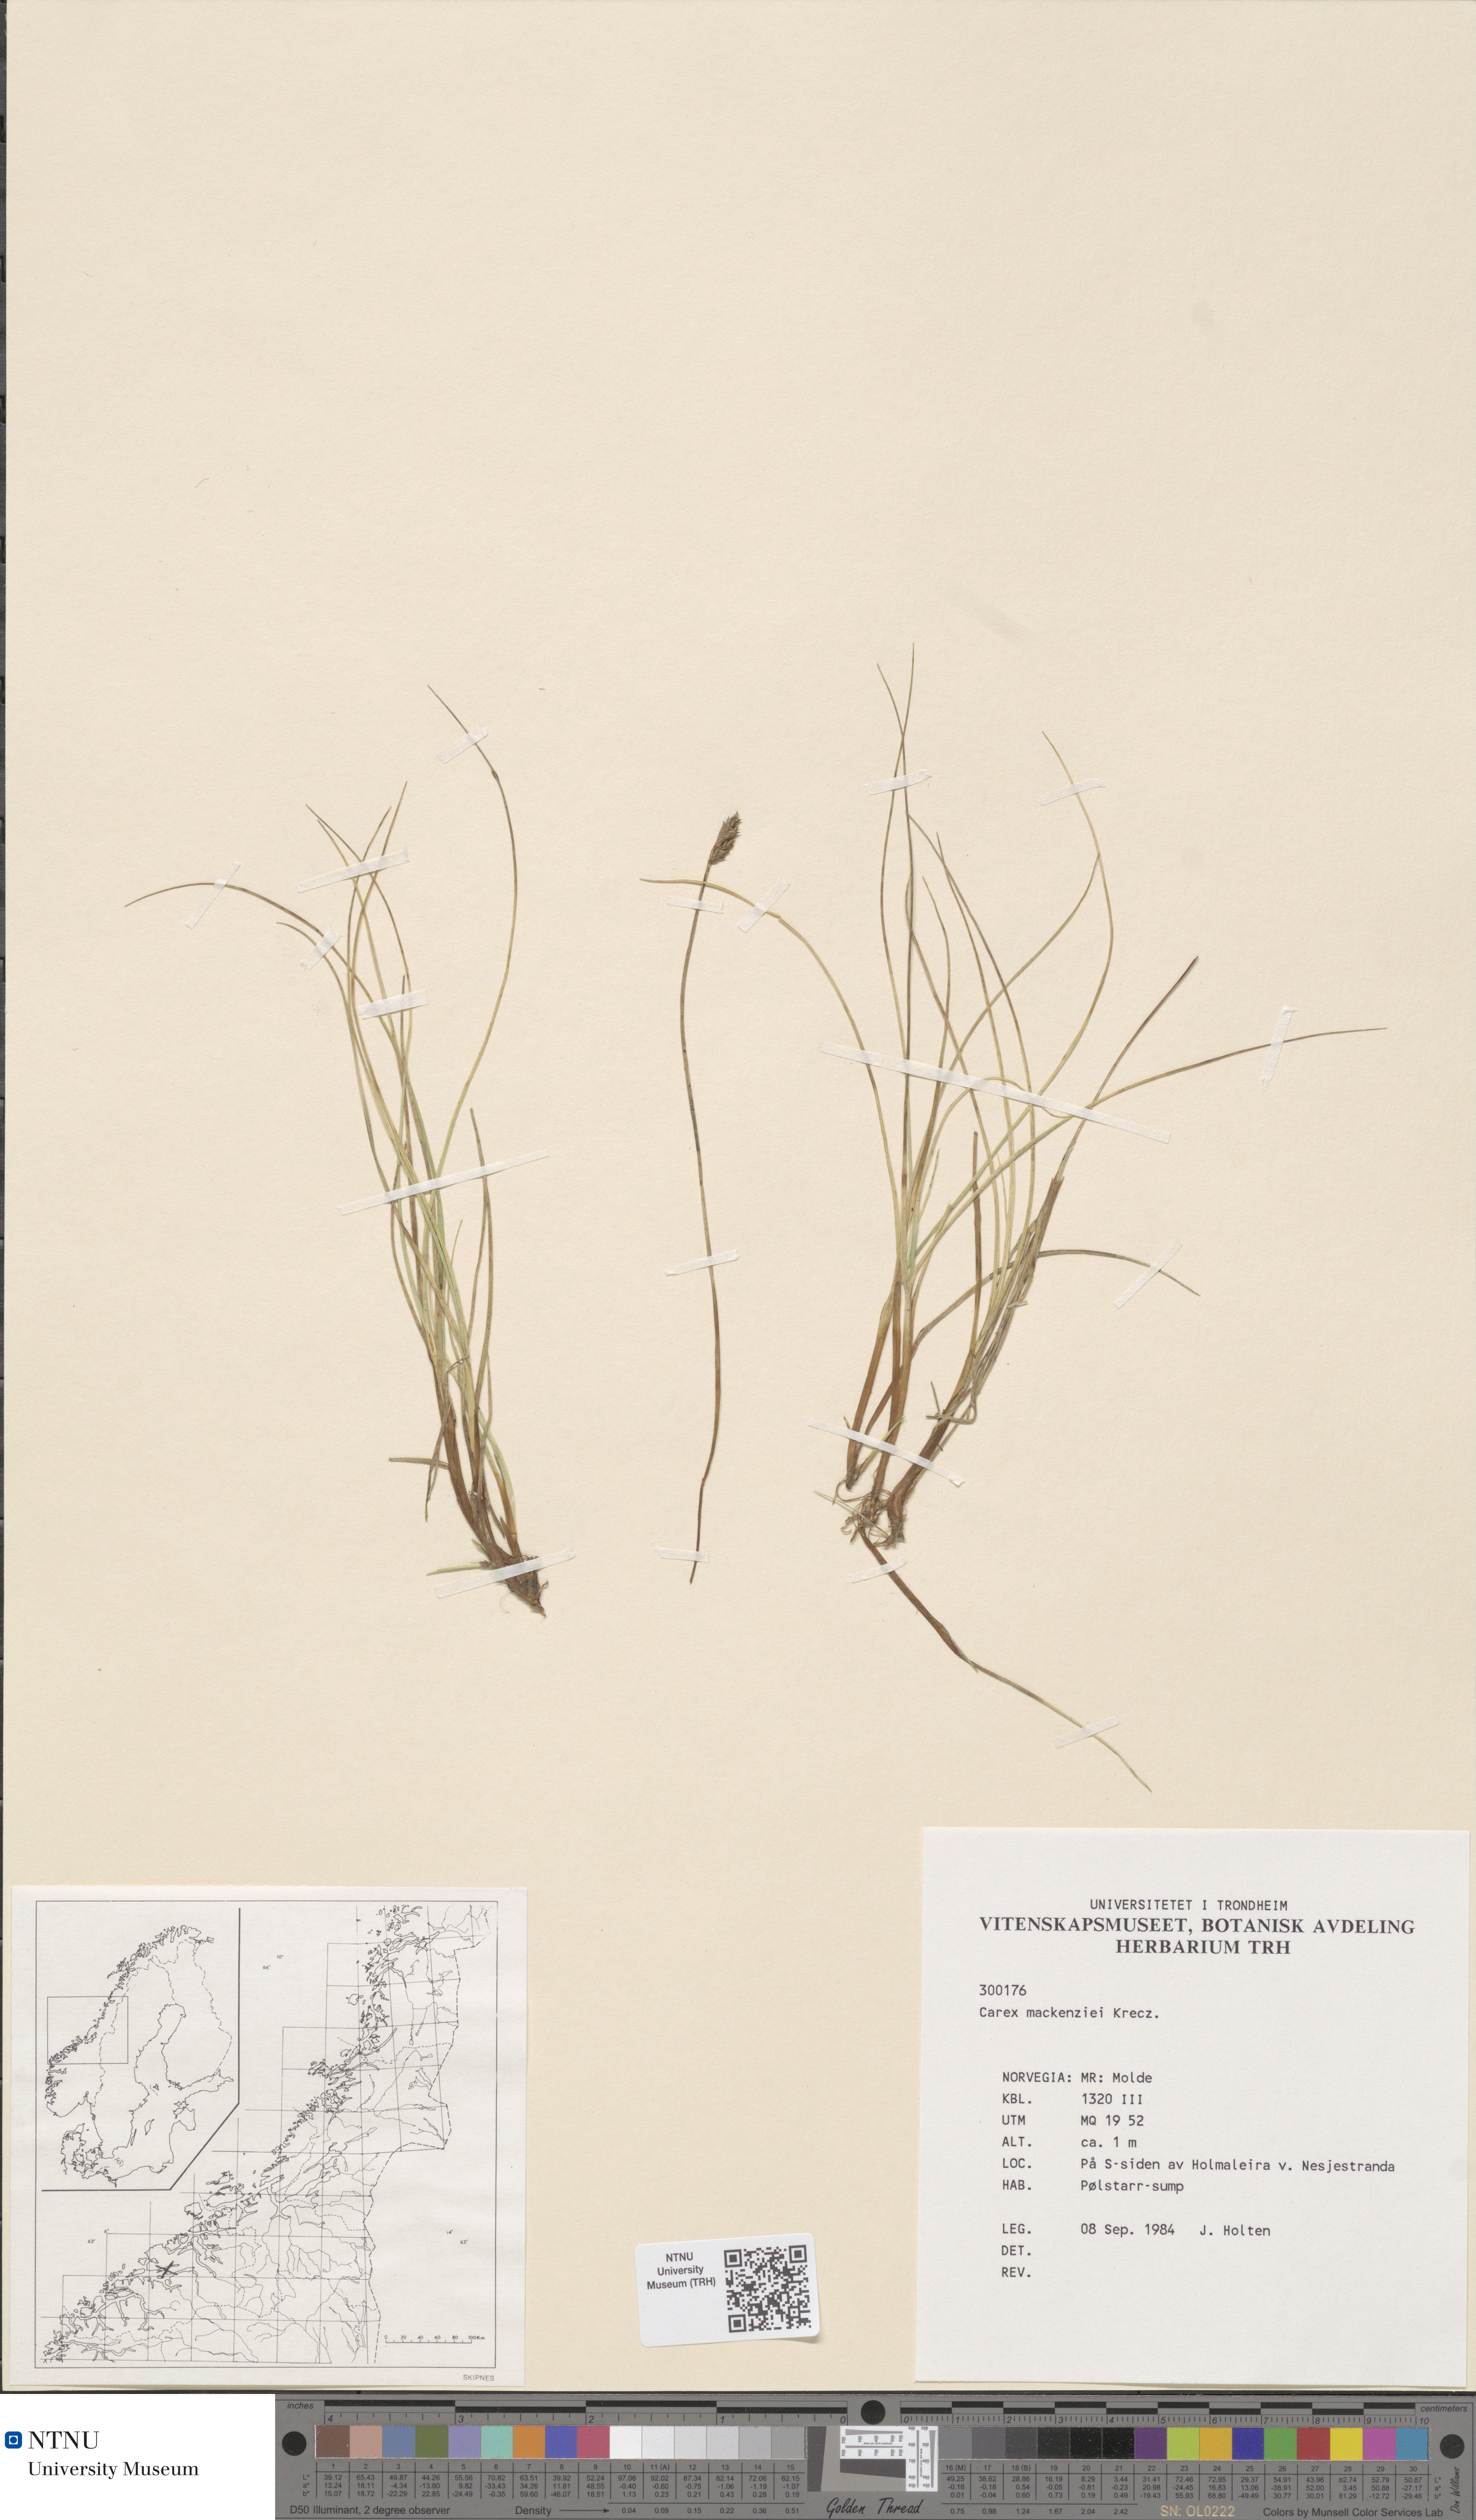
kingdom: Plantae
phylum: Tracheophyta
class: Liliopsida
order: Poales
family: Cyperaceae
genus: Carex
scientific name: Carex mackenziei
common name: Mackenzie's sedge
